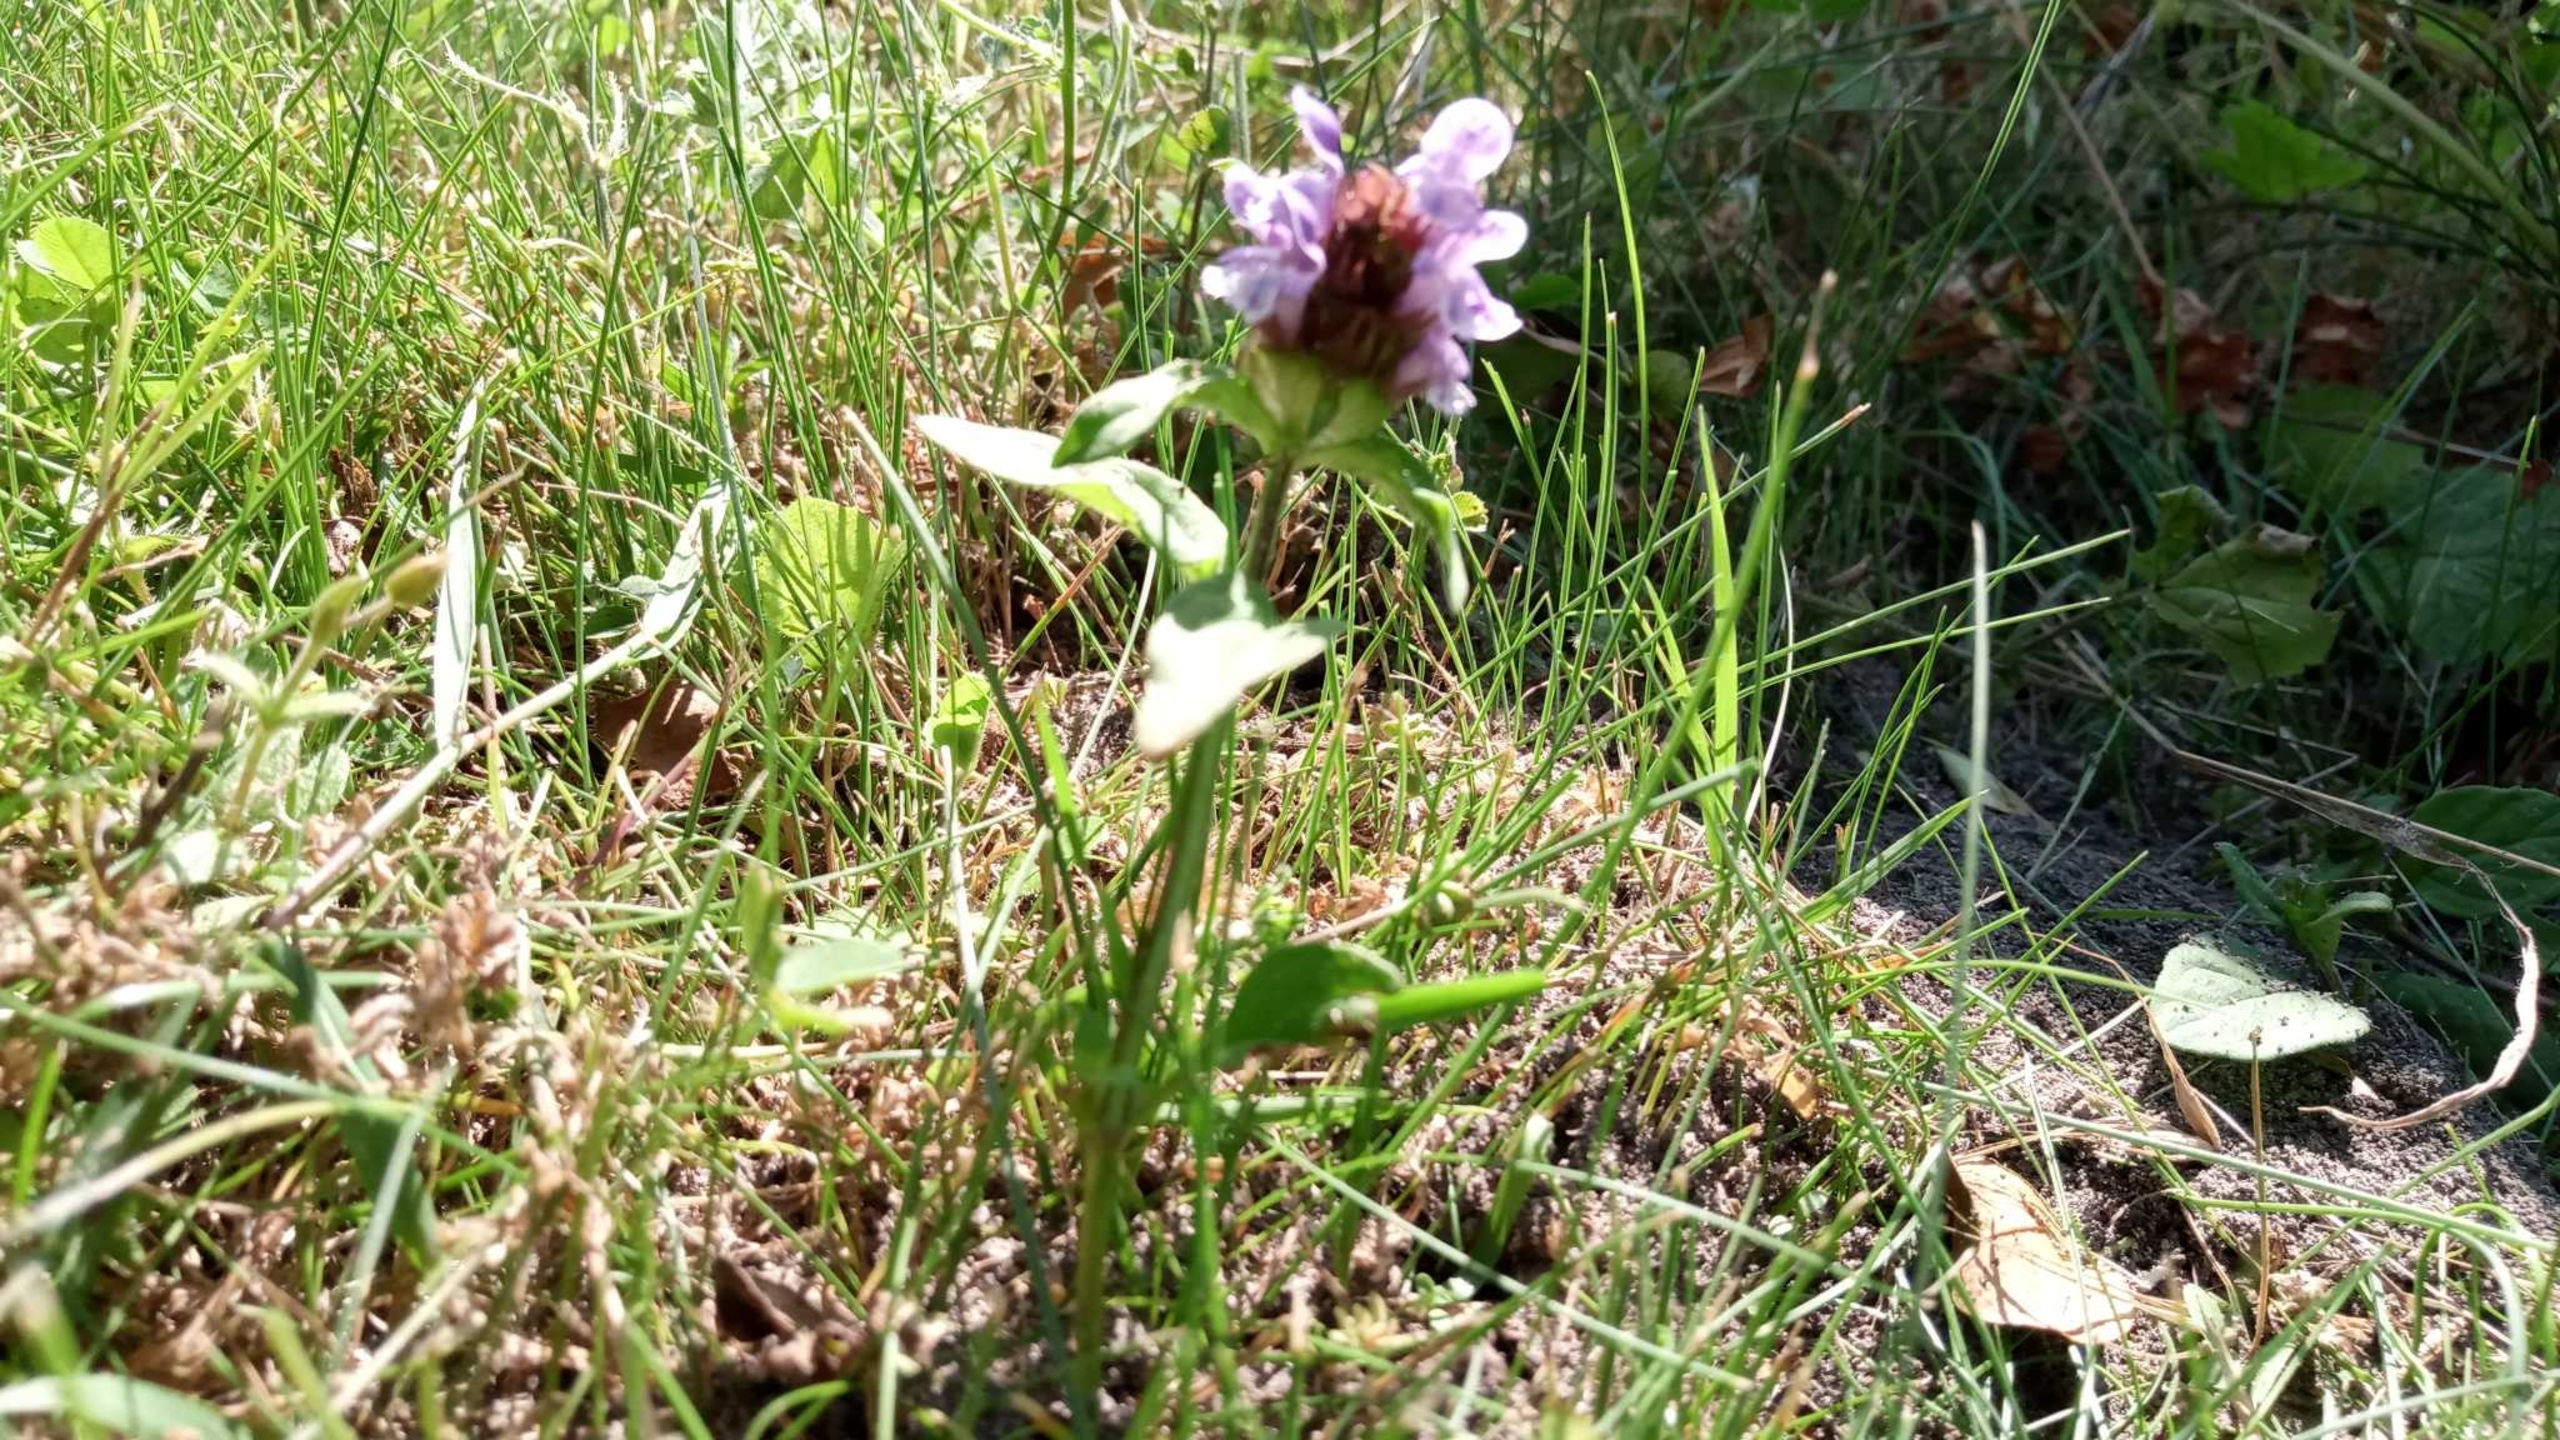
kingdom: Plantae
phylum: Tracheophyta
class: Magnoliopsida
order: Lamiales
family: Lamiaceae
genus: Prunella
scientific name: Prunella vulgaris
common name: Almindelig brunelle
